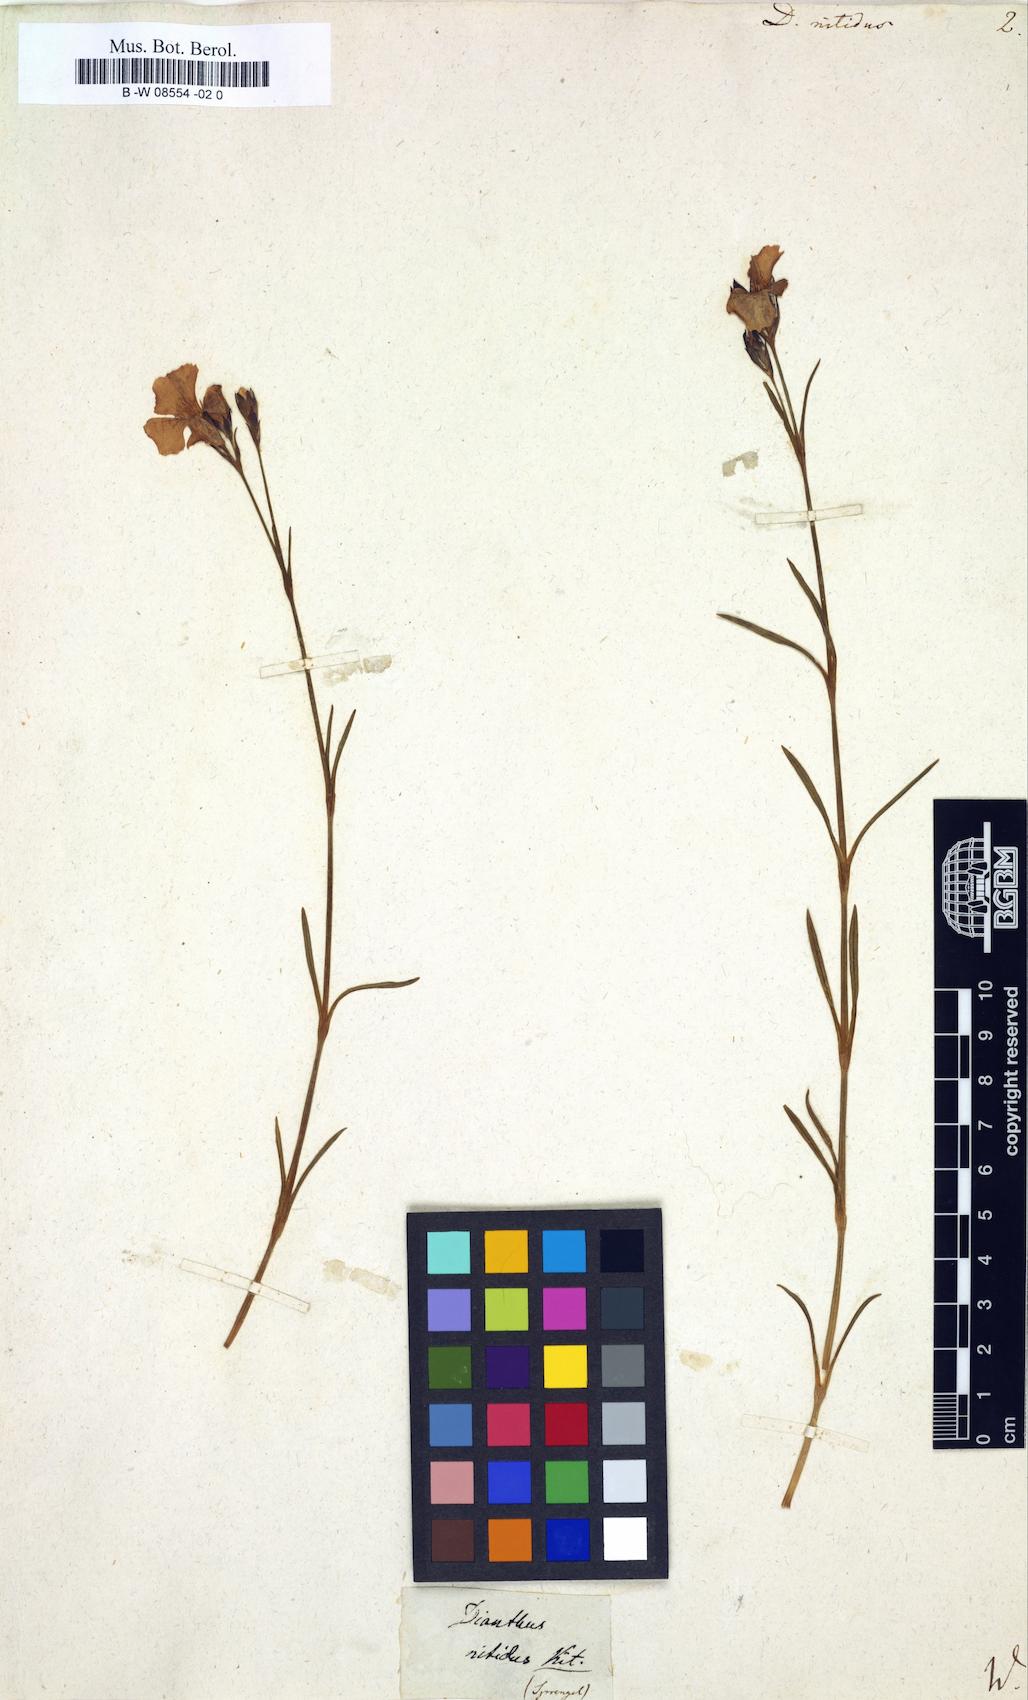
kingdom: Plantae
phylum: Tracheophyta
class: Magnoliopsida
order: Caryophyllales
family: Caryophyllaceae
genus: Dianthus
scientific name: Dianthus nitidus
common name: Carpathian glossy pink
